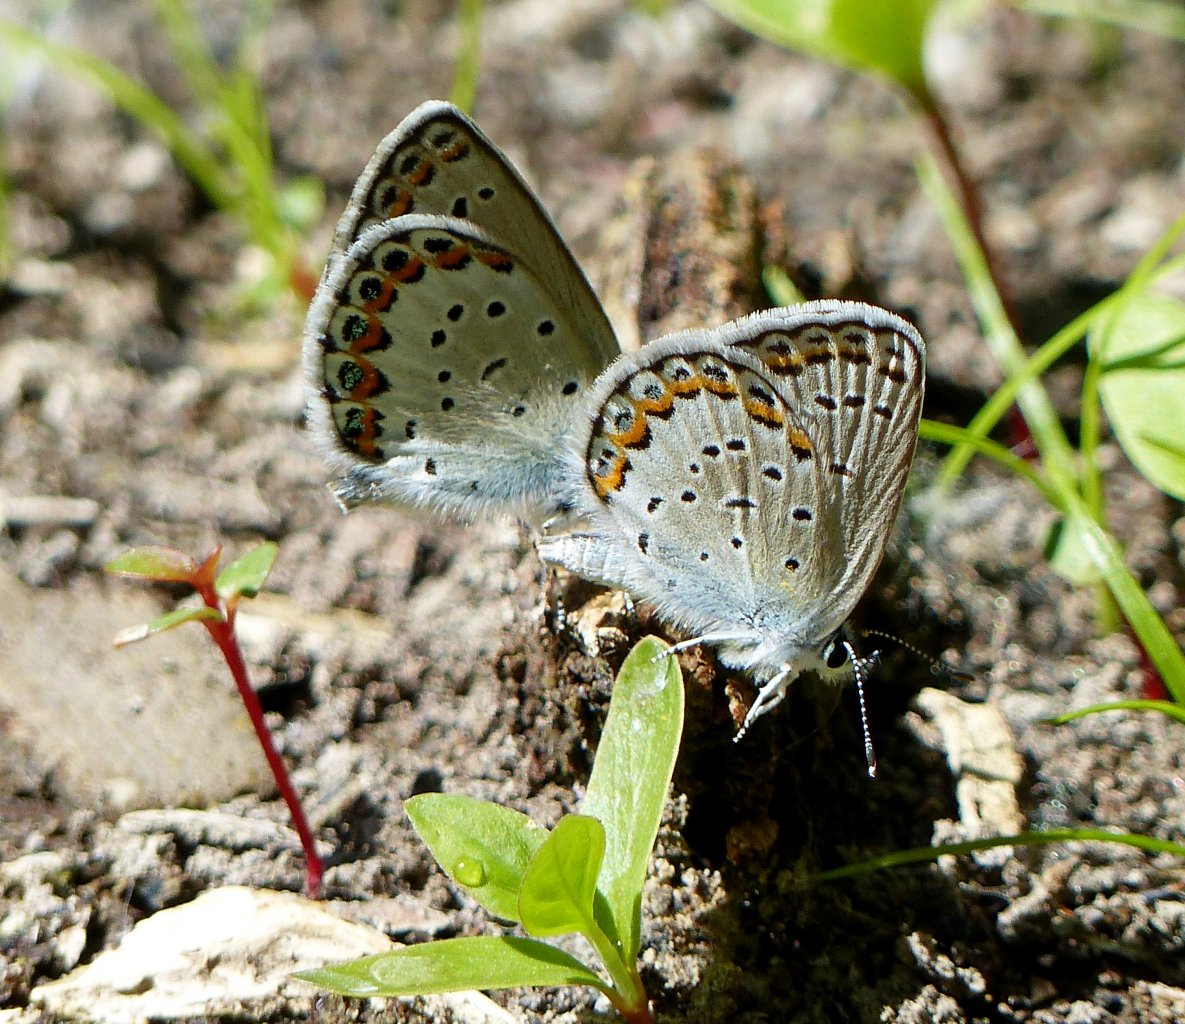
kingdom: Animalia
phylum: Arthropoda
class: Insecta
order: Lepidoptera
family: Lycaenidae
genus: Lycaeides
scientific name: Lycaeides melissa
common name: Melissa Blue
